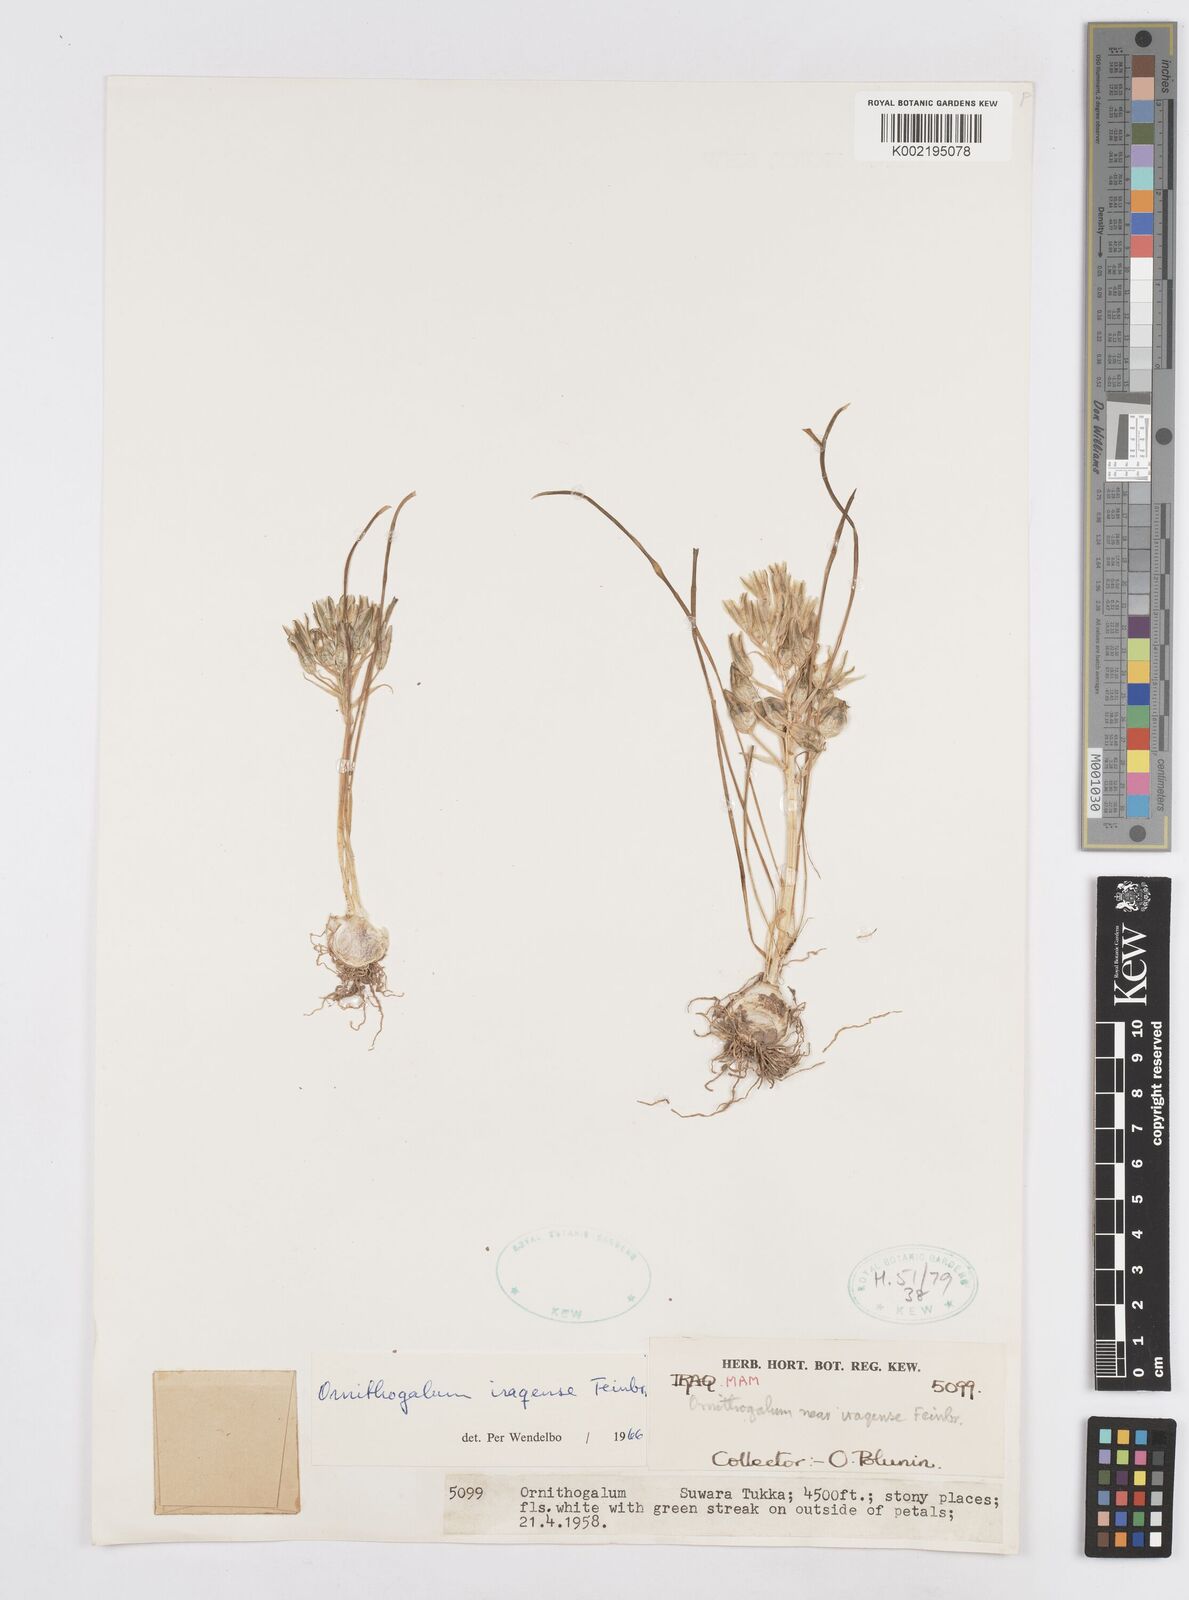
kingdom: Plantae
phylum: Tracheophyta
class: Liliopsida
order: Asparagales
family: Asparagaceae
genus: Ornithogalum
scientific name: Ornithogalum iraqense
